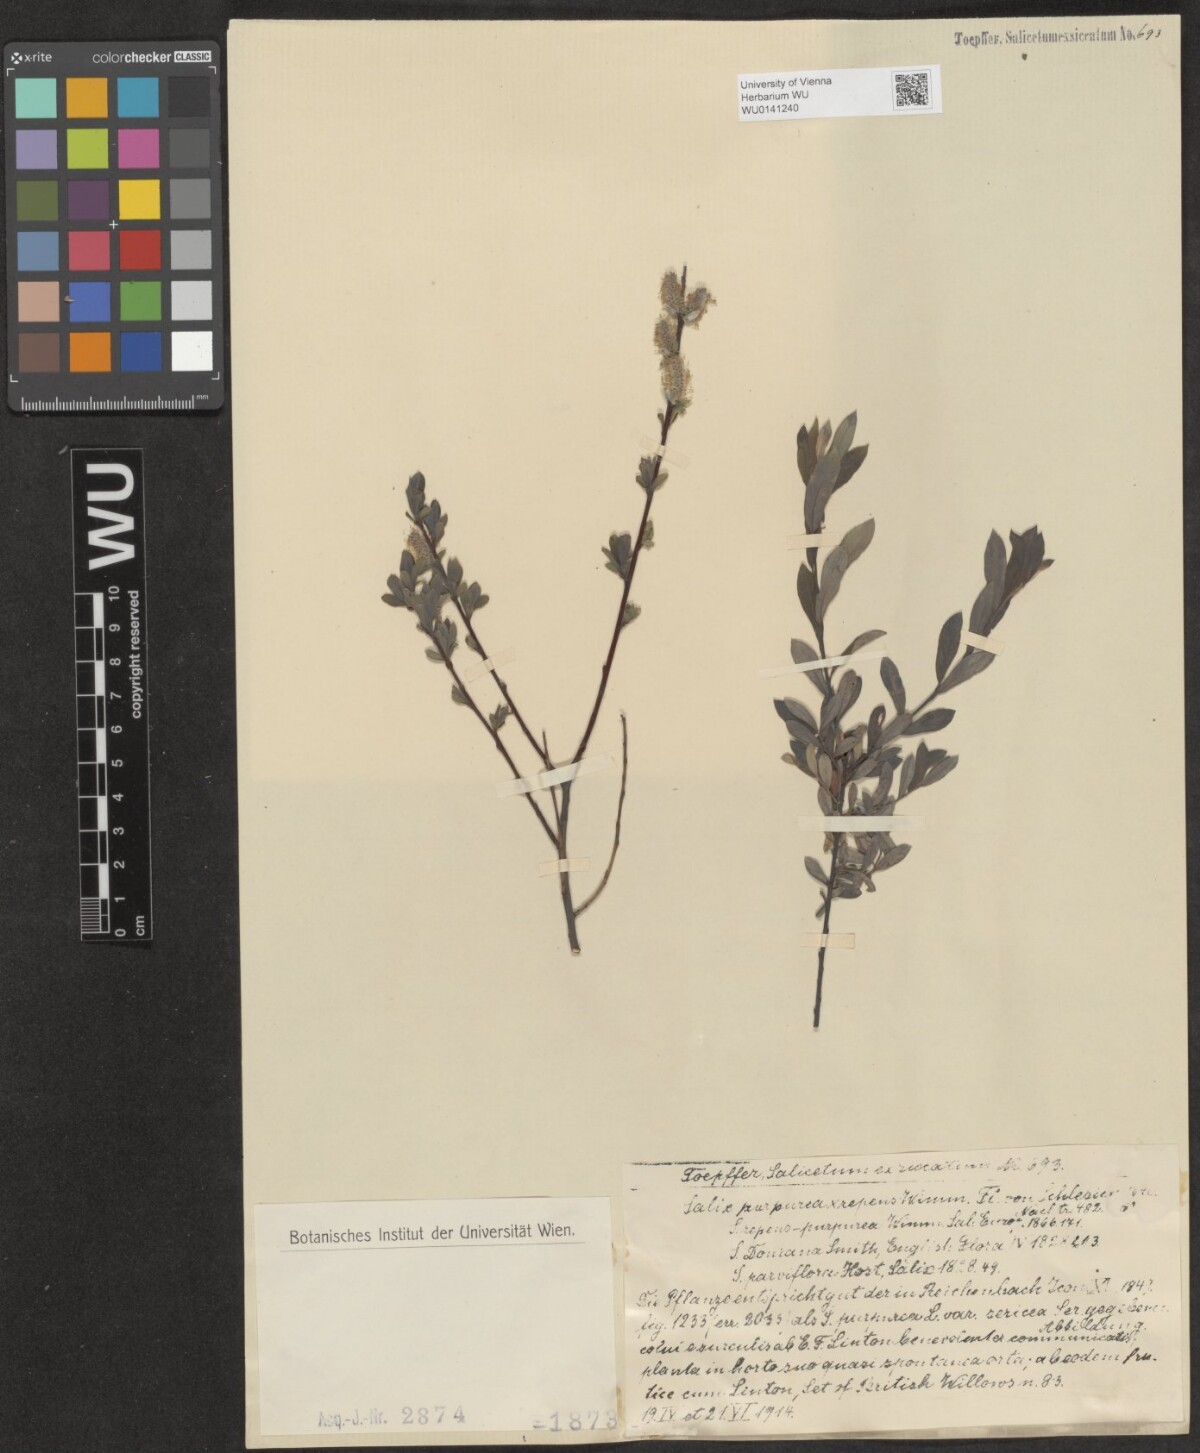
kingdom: Plantae
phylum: Tracheophyta
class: Magnoliopsida
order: Malpighiales
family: Salicaceae
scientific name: Salicaceae
